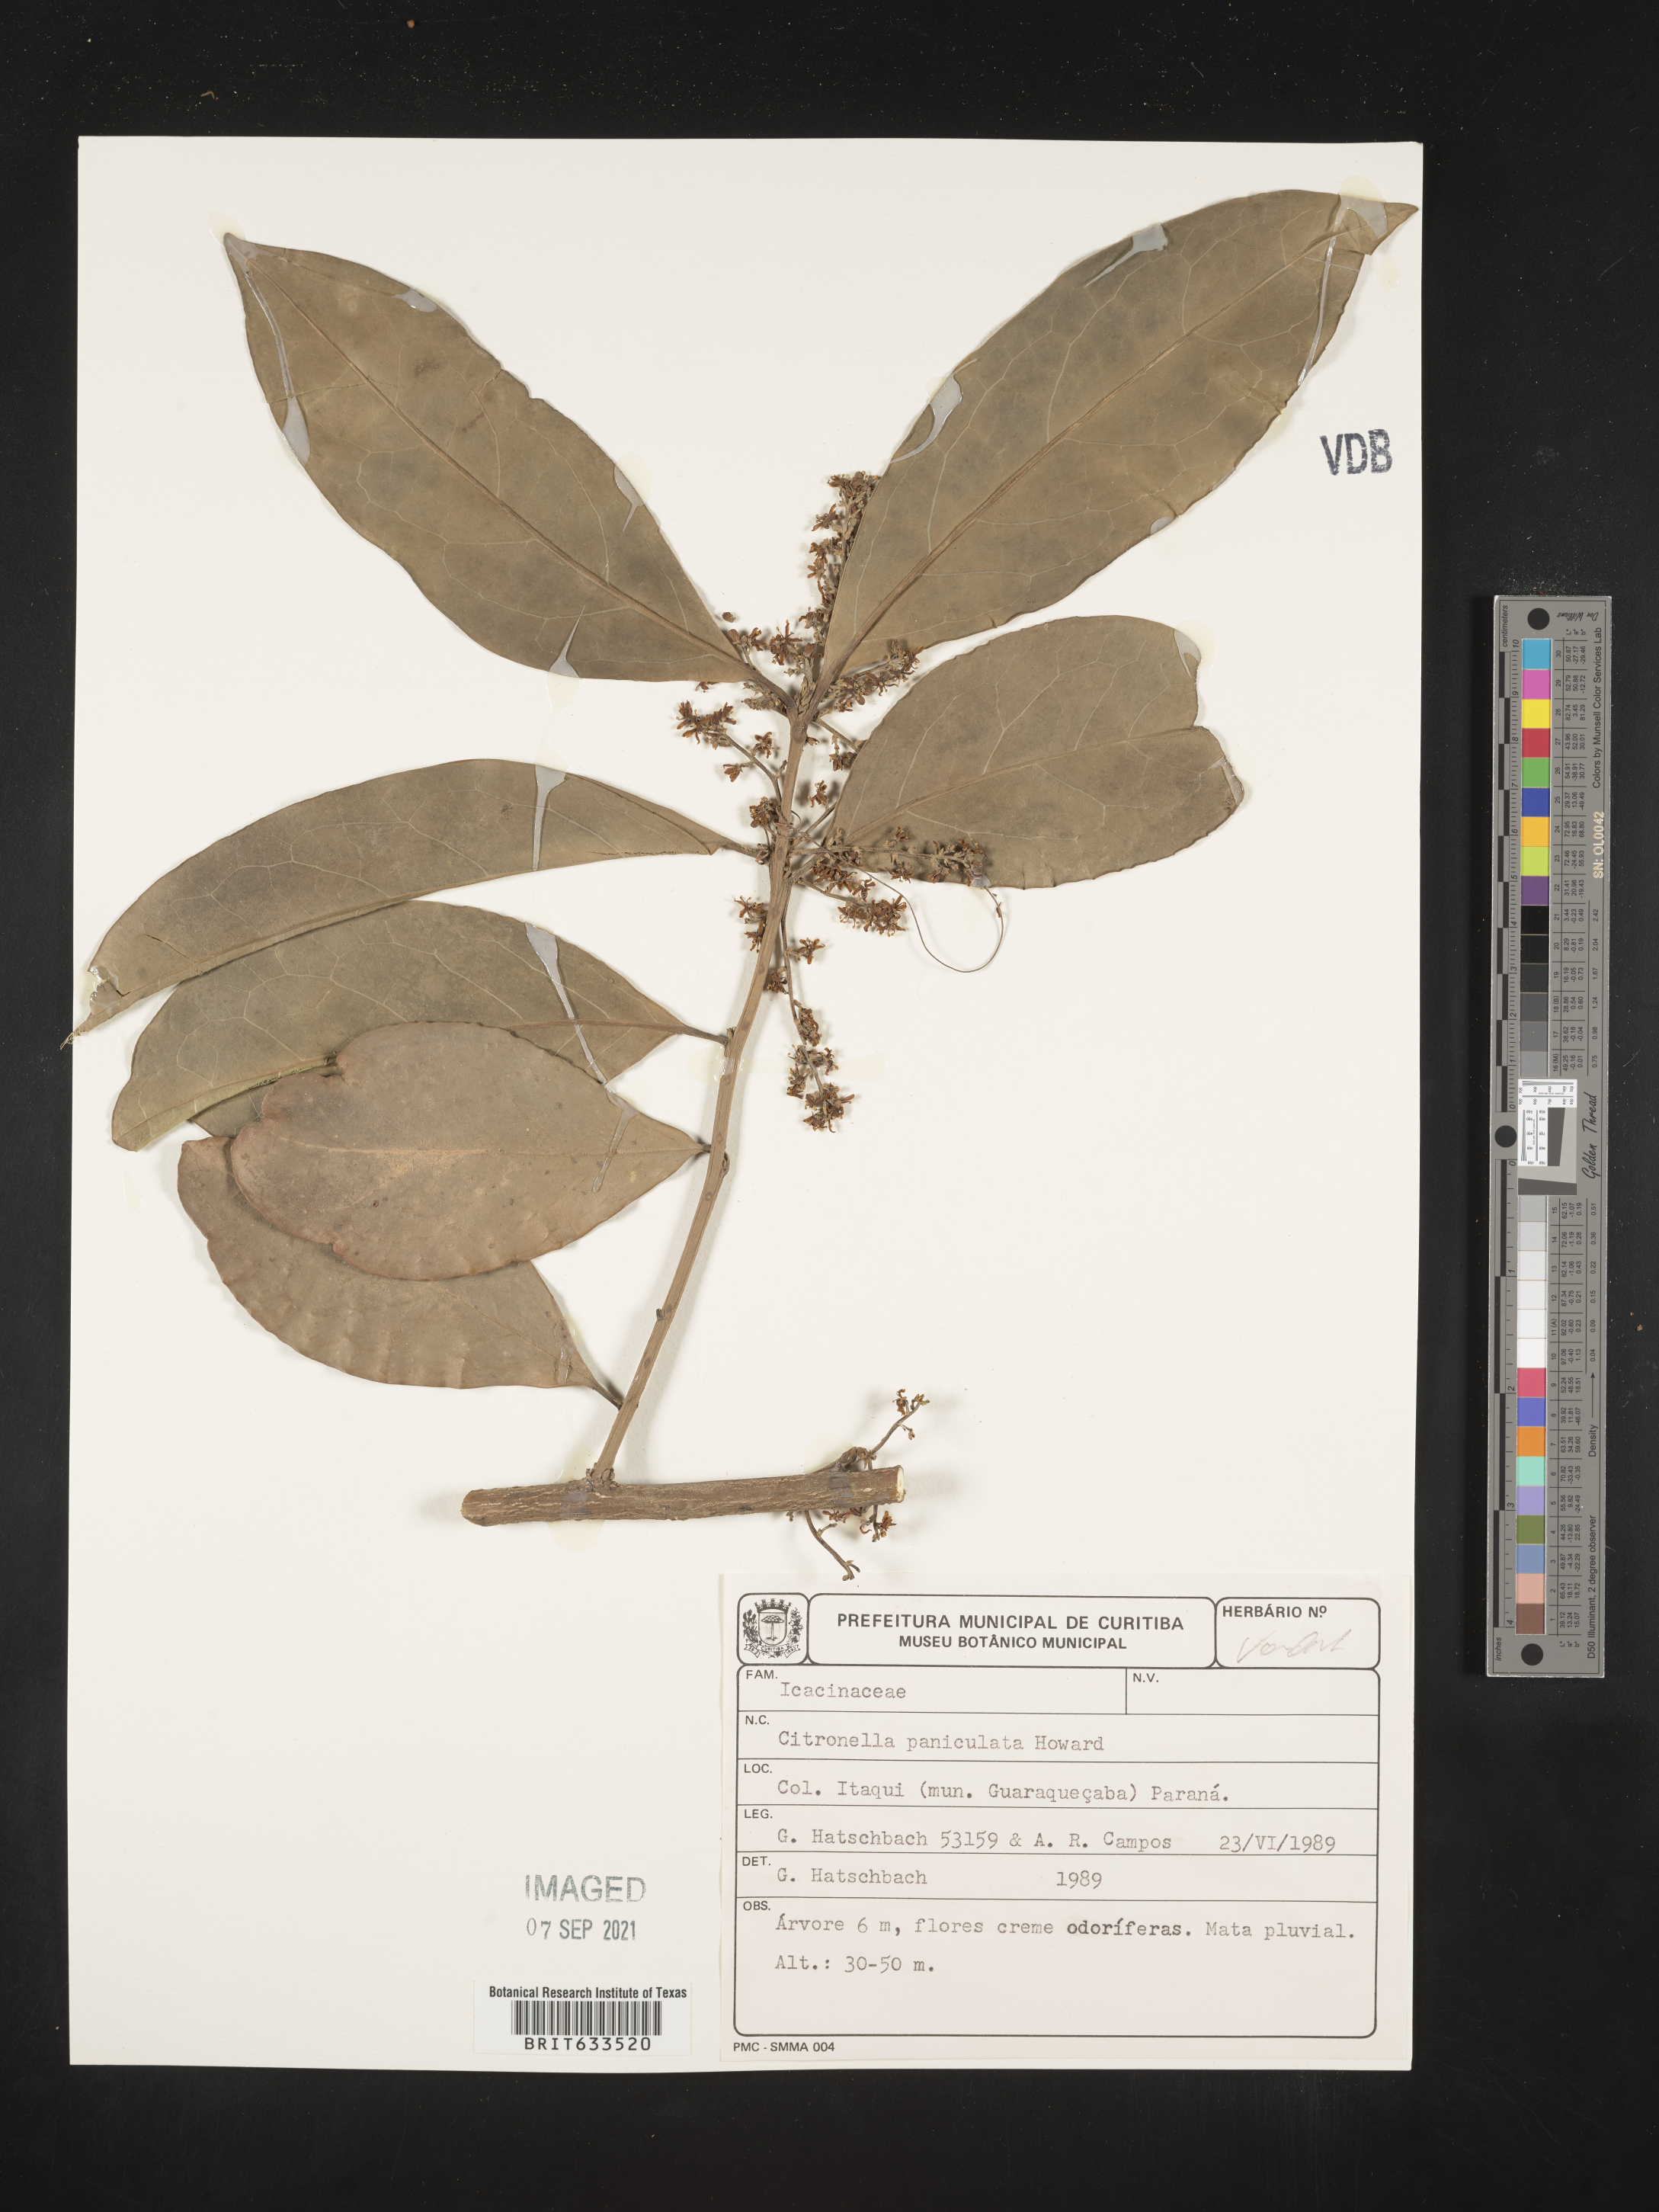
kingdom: Plantae
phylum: Tracheophyta
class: Magnoliopsida
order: Cardiopteridales
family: Cardiopteridaceae
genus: Citronella
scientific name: Citronella paniculata
